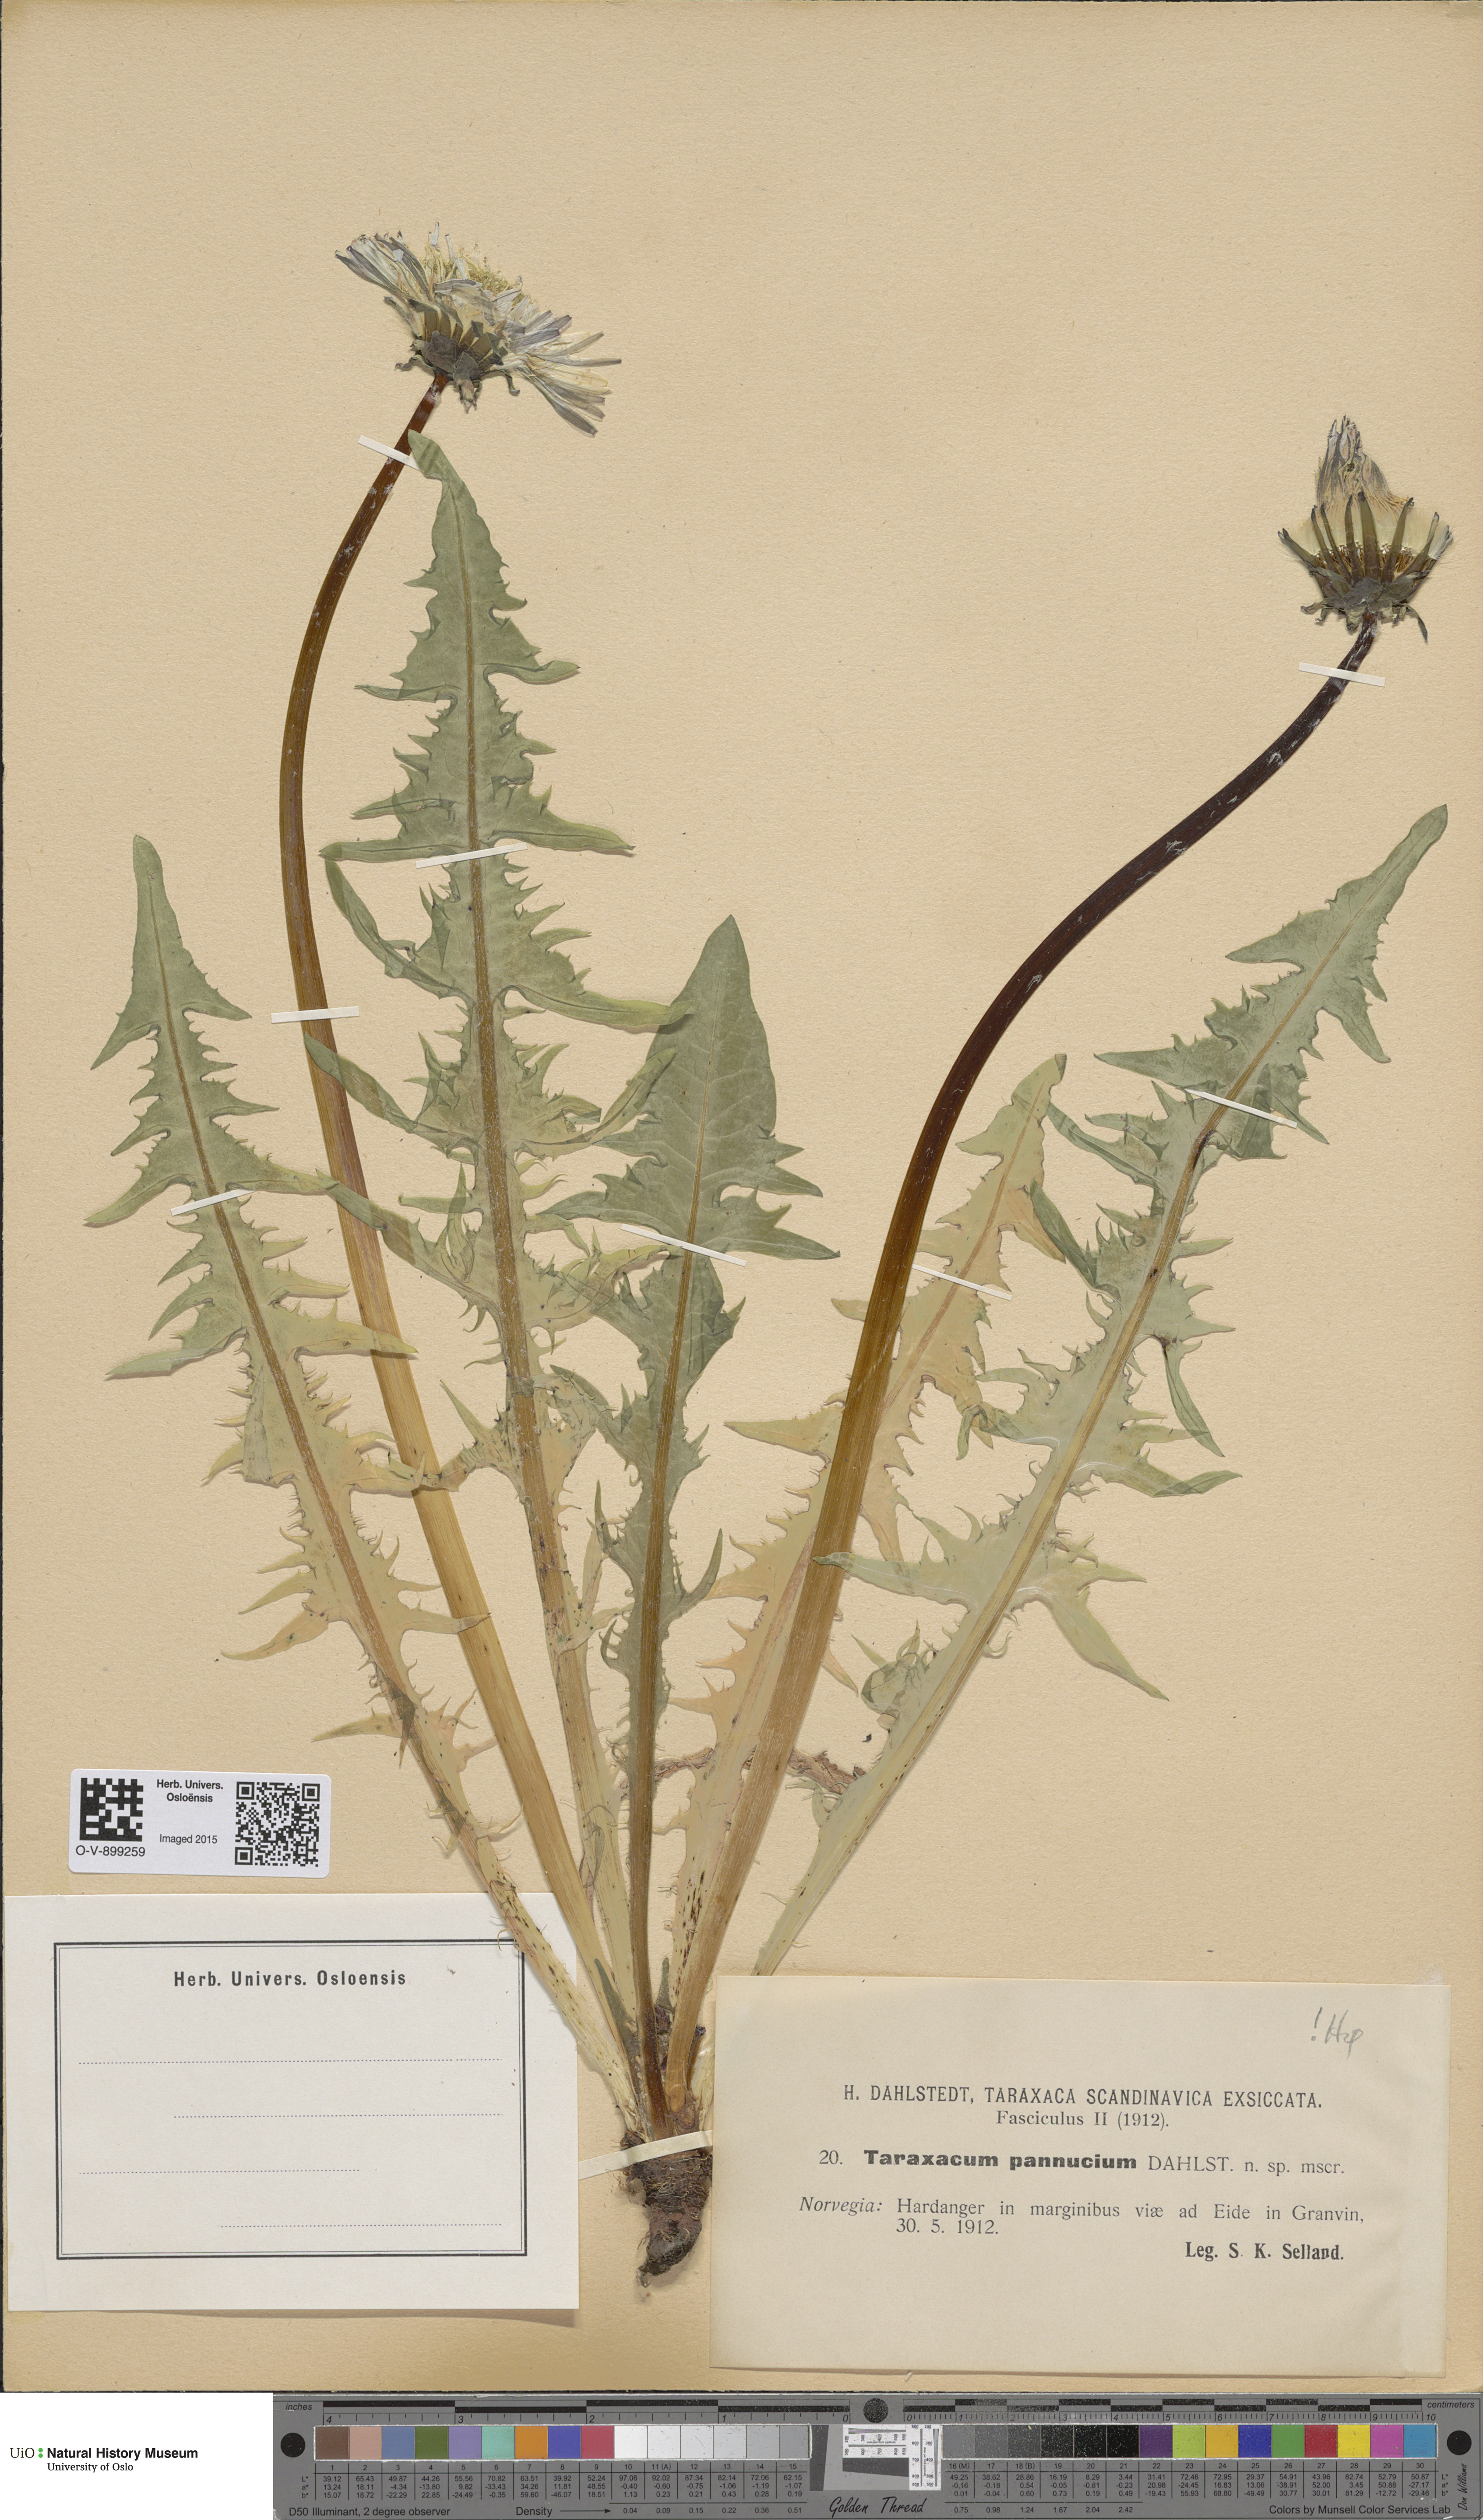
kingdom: Plantae
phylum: Tracheophyta
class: Magnoliopsida
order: Asterales
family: Asteraceae
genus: Taraxacum
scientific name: Taraxacum pannucium
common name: Green-stalked dandelion
